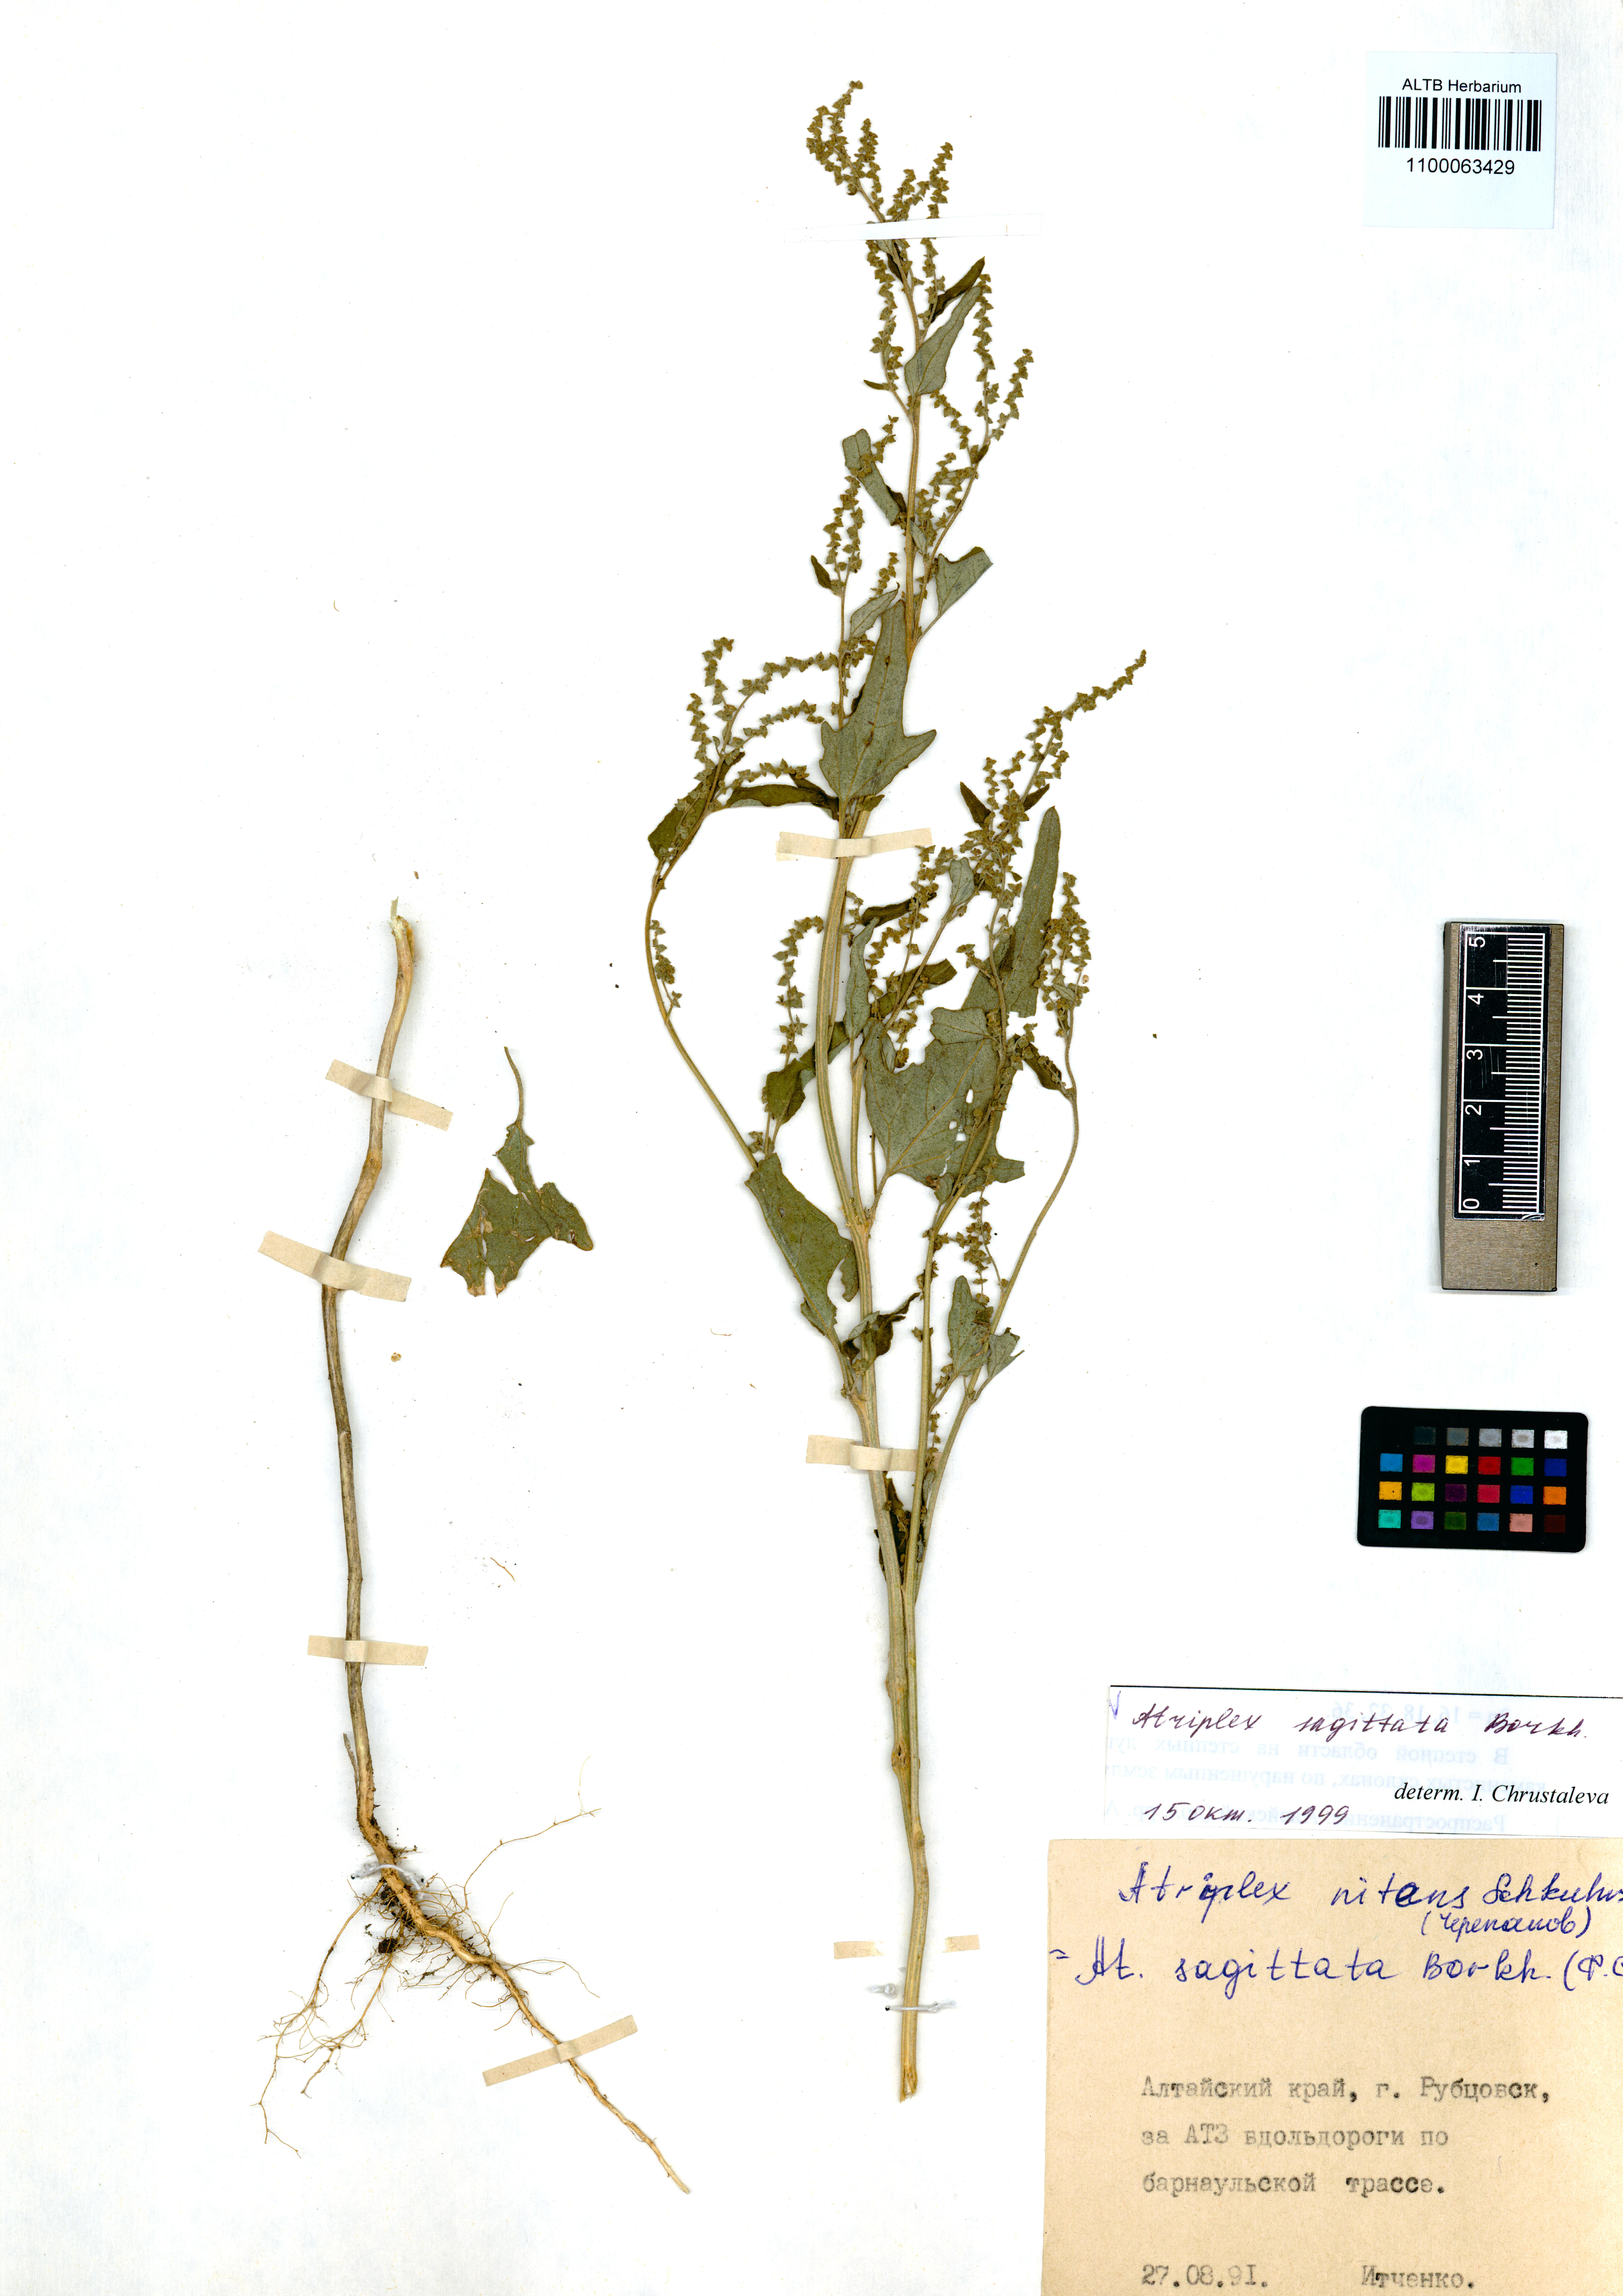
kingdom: Plantae
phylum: Tracheophyta
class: Magnoliopsida
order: Caryophyllales
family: Amaranthaceae
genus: Atriplex
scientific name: Atriplex sagittata
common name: Purple orache
